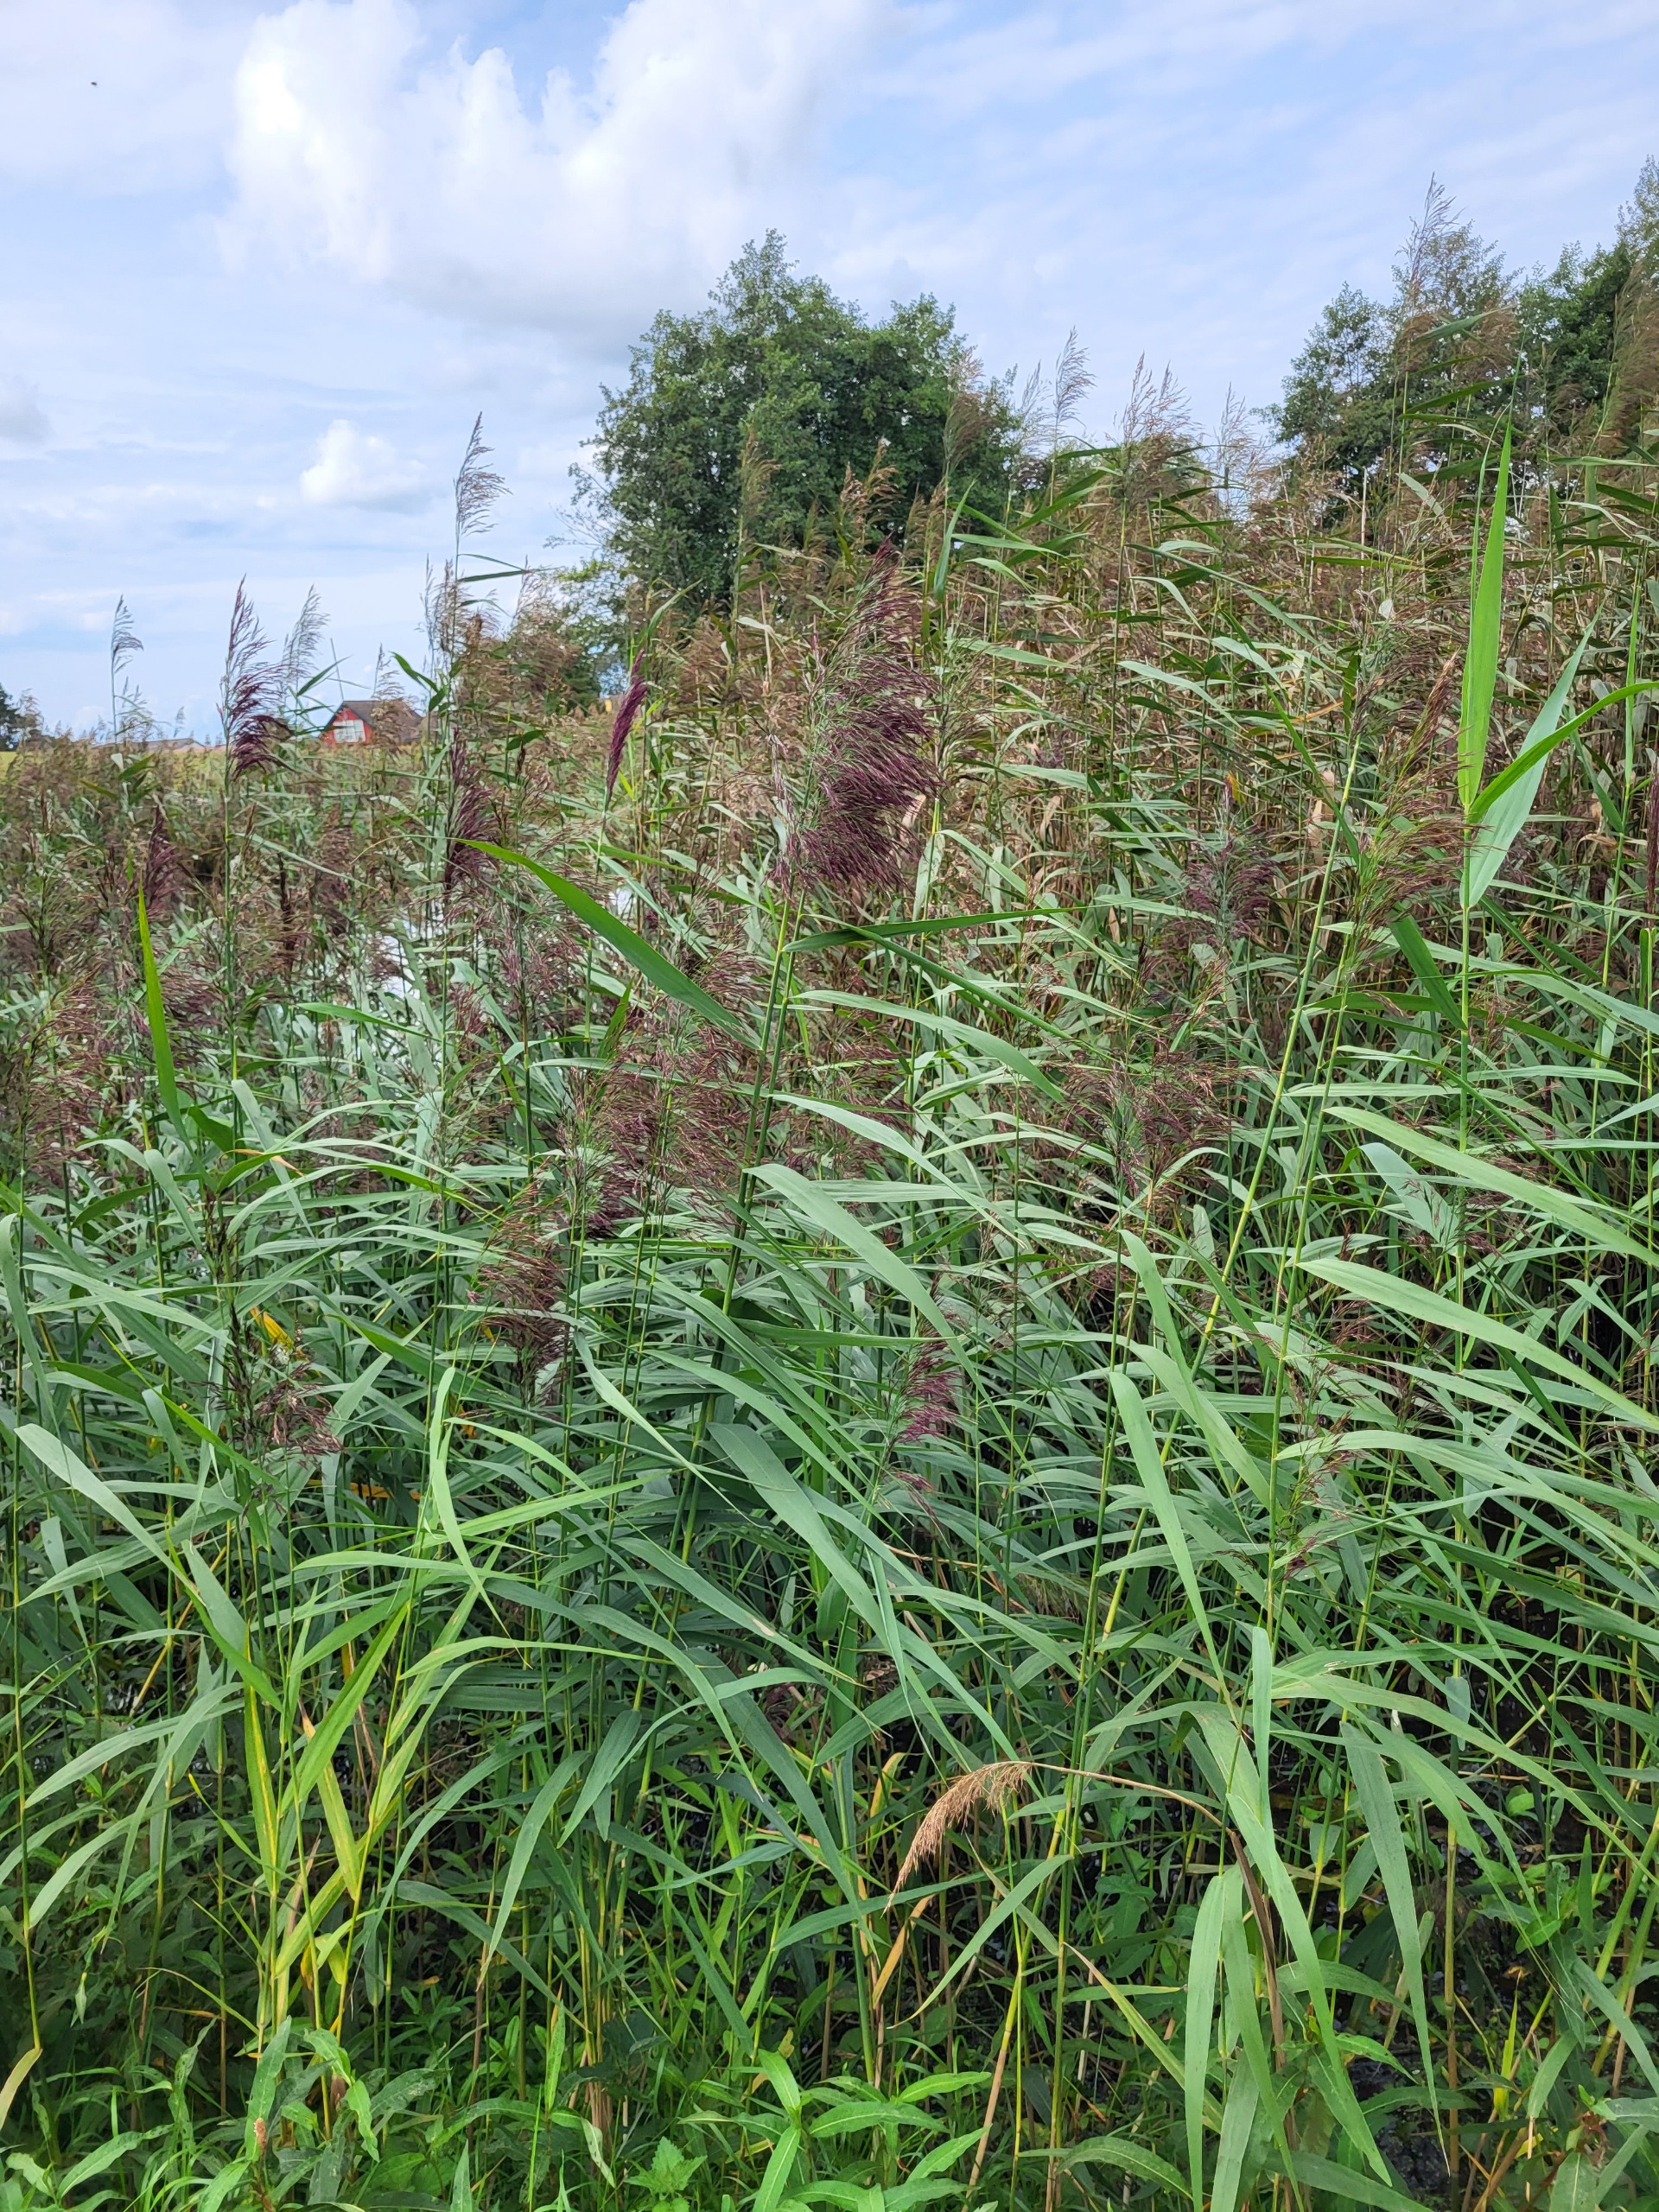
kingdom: Plantae
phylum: Tracheophyta
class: Liliopsida
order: Poales
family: Poaceae
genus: Phragmites
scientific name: Phragmites australis
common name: Tagrør
